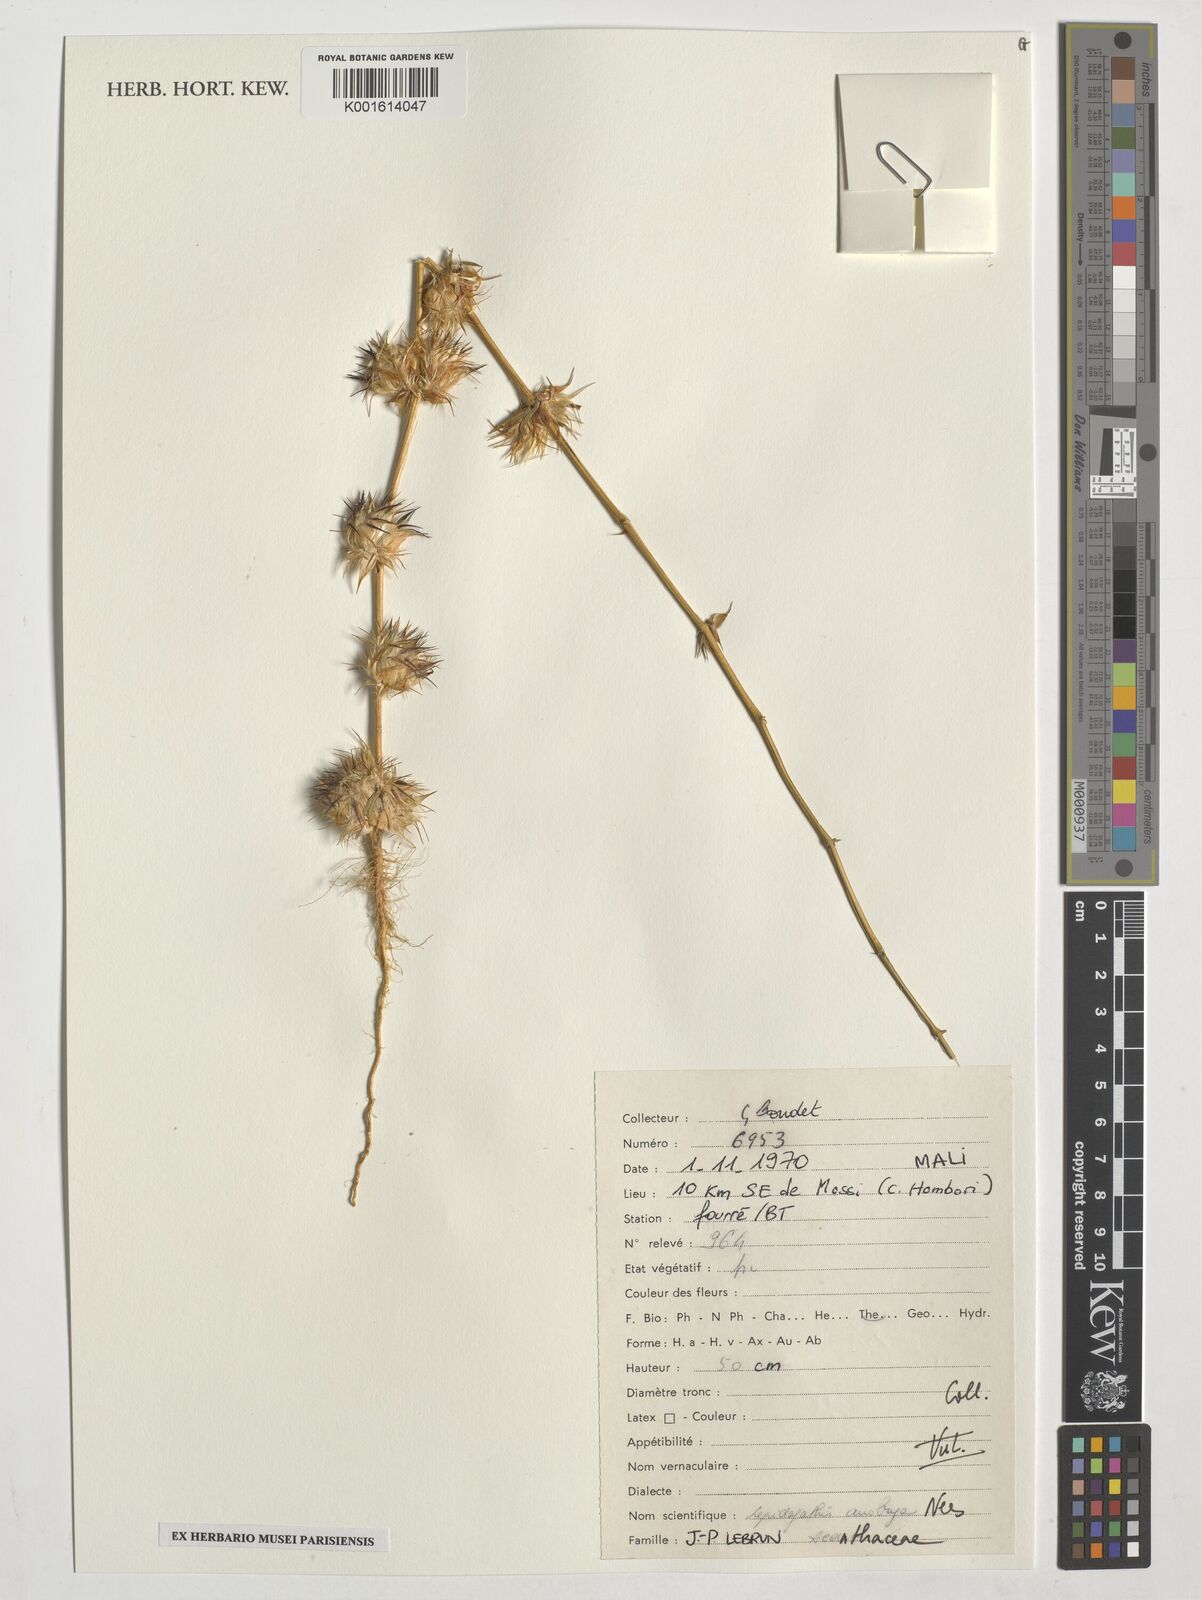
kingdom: Plantae
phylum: Tracheophyta
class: Magnoliopsida
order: Lamiales
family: Acanthaceae
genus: Lepidagathis
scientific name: Lepidagathis anobrya
